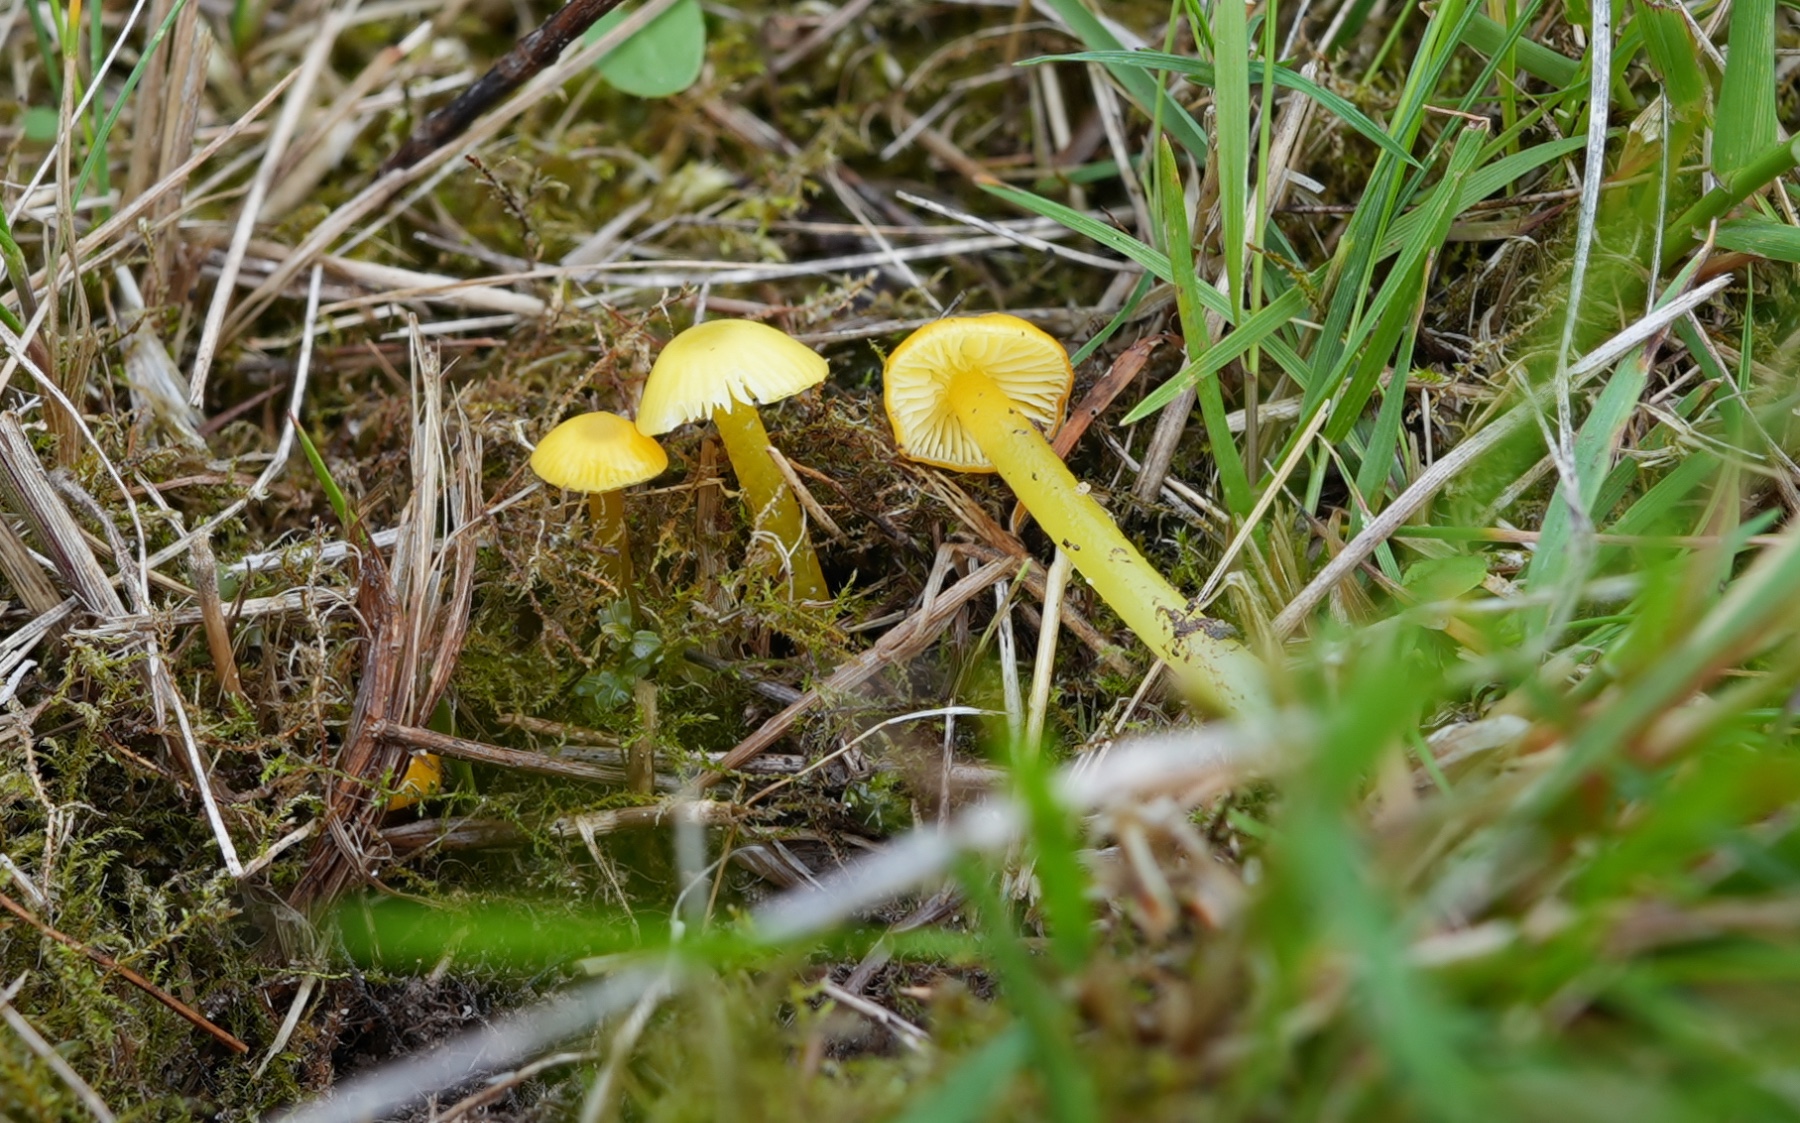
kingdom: Fungi
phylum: Basidiomycota
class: Agaricomycetes
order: Agaricales
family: Hygrophoraceae
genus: Hygrocybe
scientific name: Hygrocybe glutinipes
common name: slimstokket vokshat
